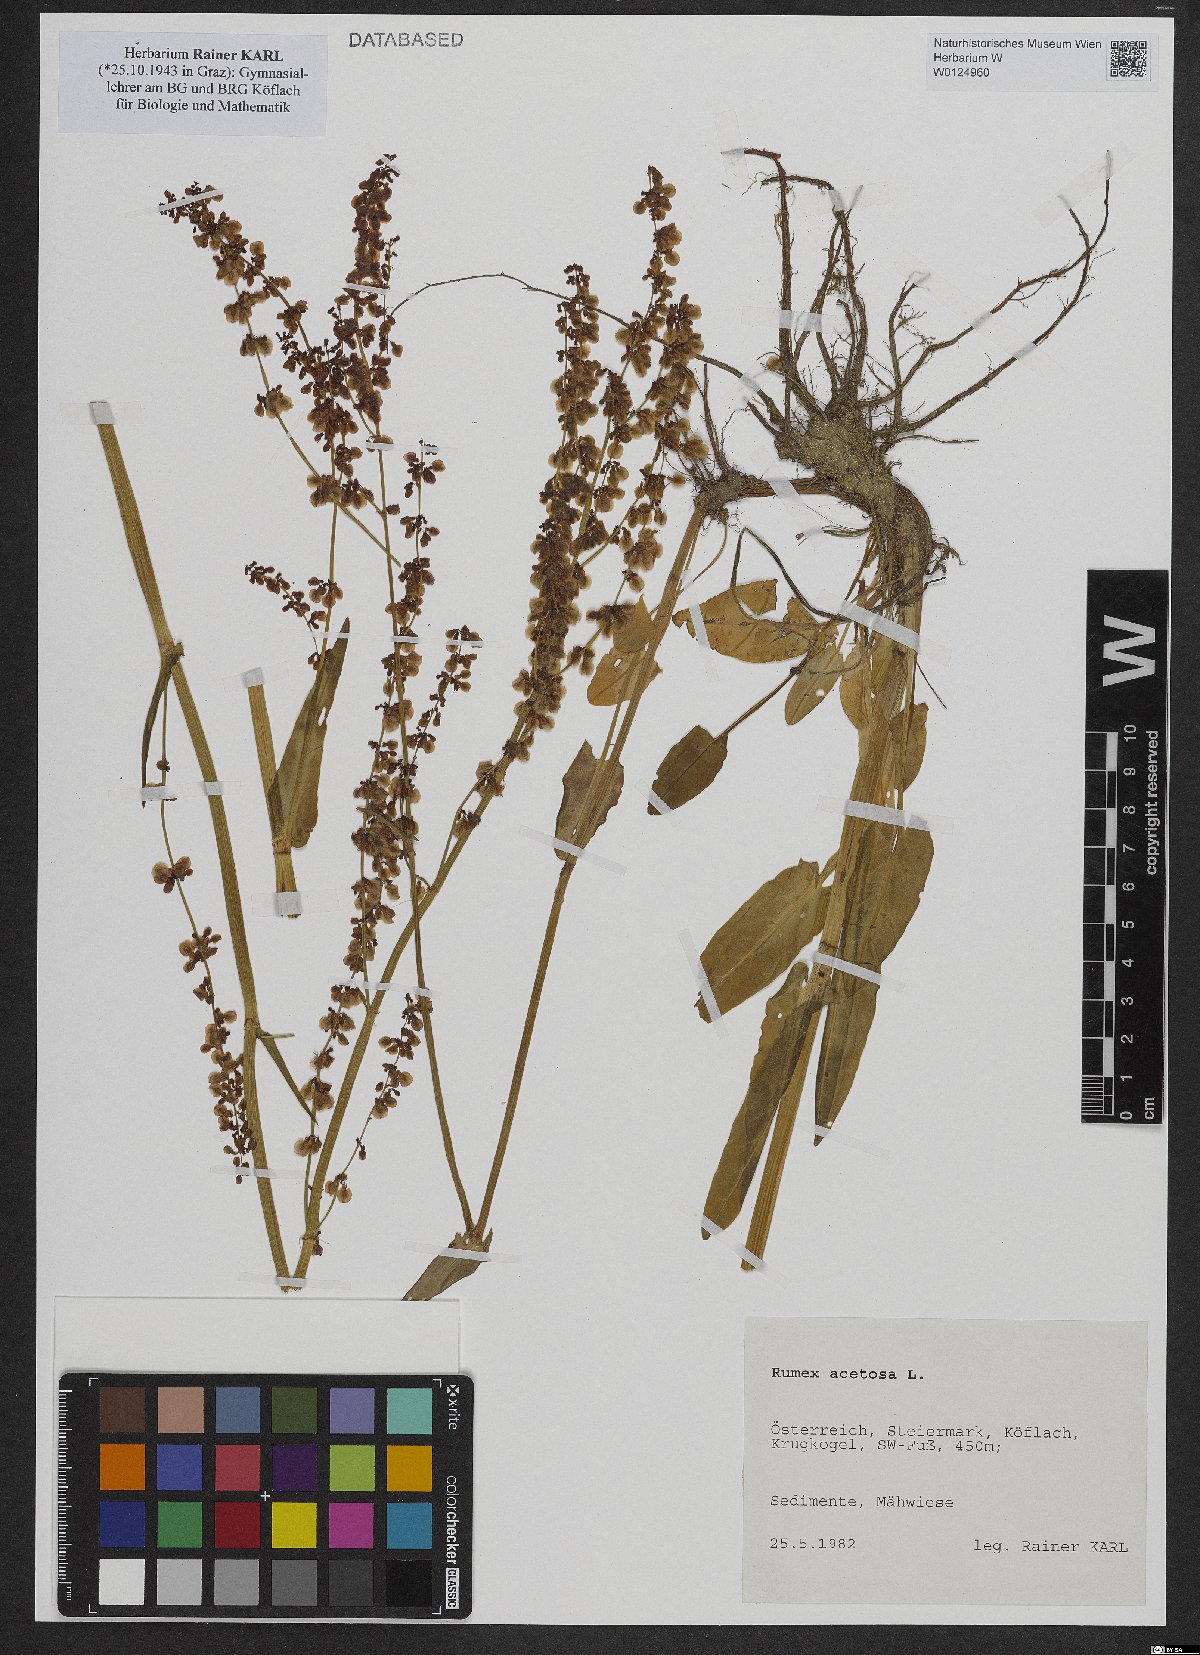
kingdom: Plantae
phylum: Tracheophyta
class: Magnoliopsida
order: Caryophyllales
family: Polygonaceae
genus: Rumex
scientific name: Rumex acetosa
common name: Garden sorrel
